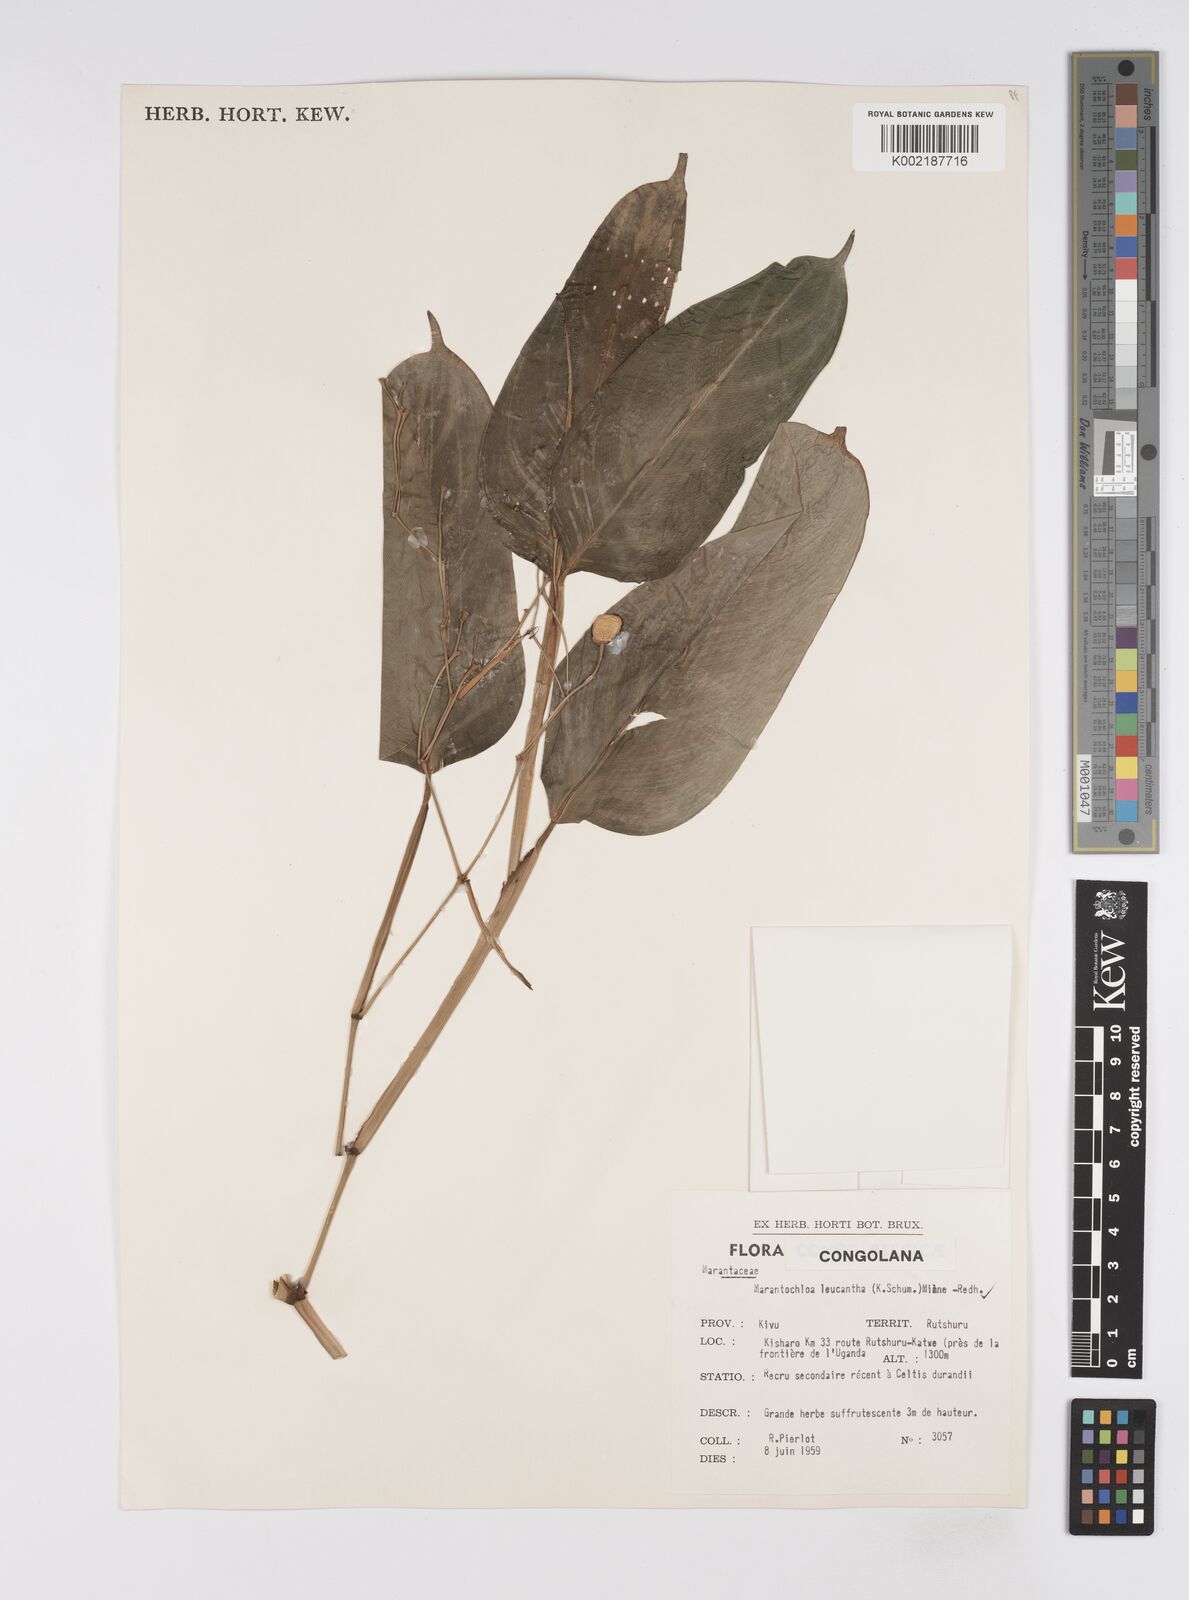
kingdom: Plantae
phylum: Tracheophyta
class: Liliopsida
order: Zingiberales
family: Marantaceae
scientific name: Marantaceae
